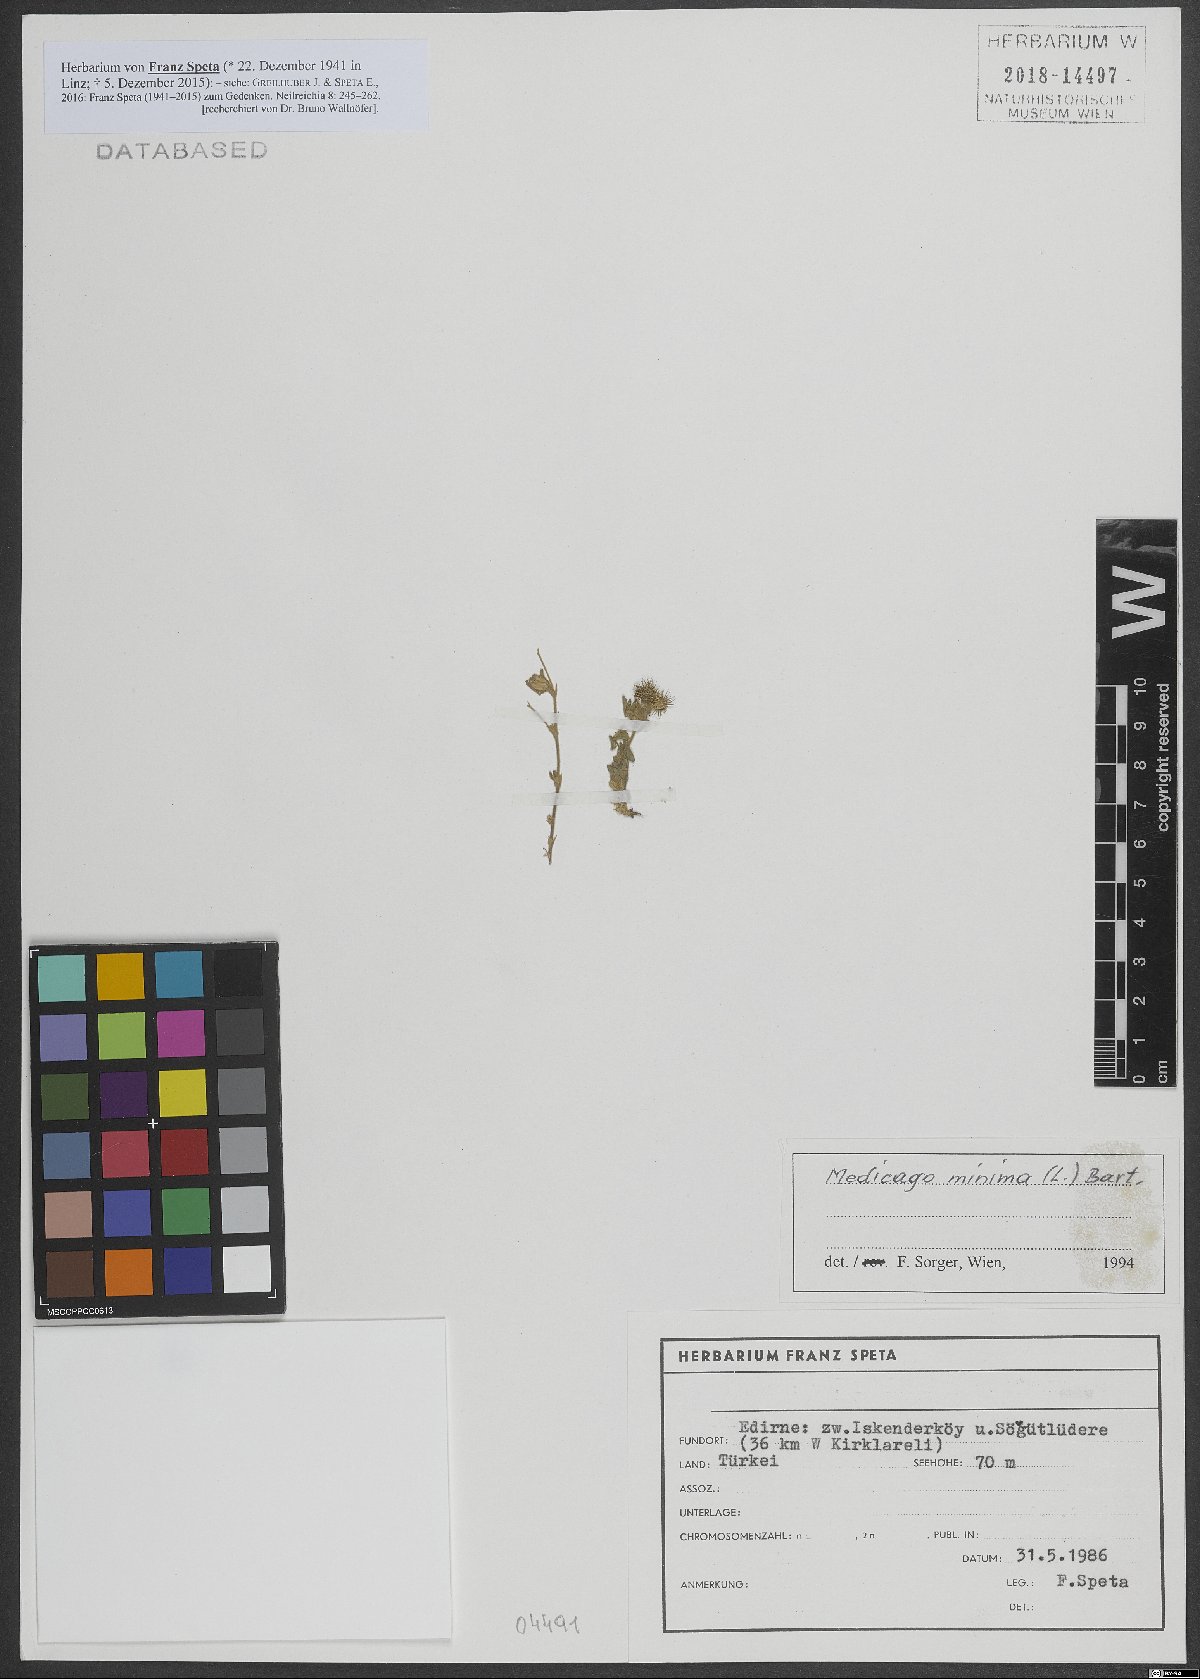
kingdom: Plantae
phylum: Tracheophyta
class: Magnoliopsida
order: Fabales
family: Fabaceae
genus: Medicago
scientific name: Medicago minima
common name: Little bur-clover
